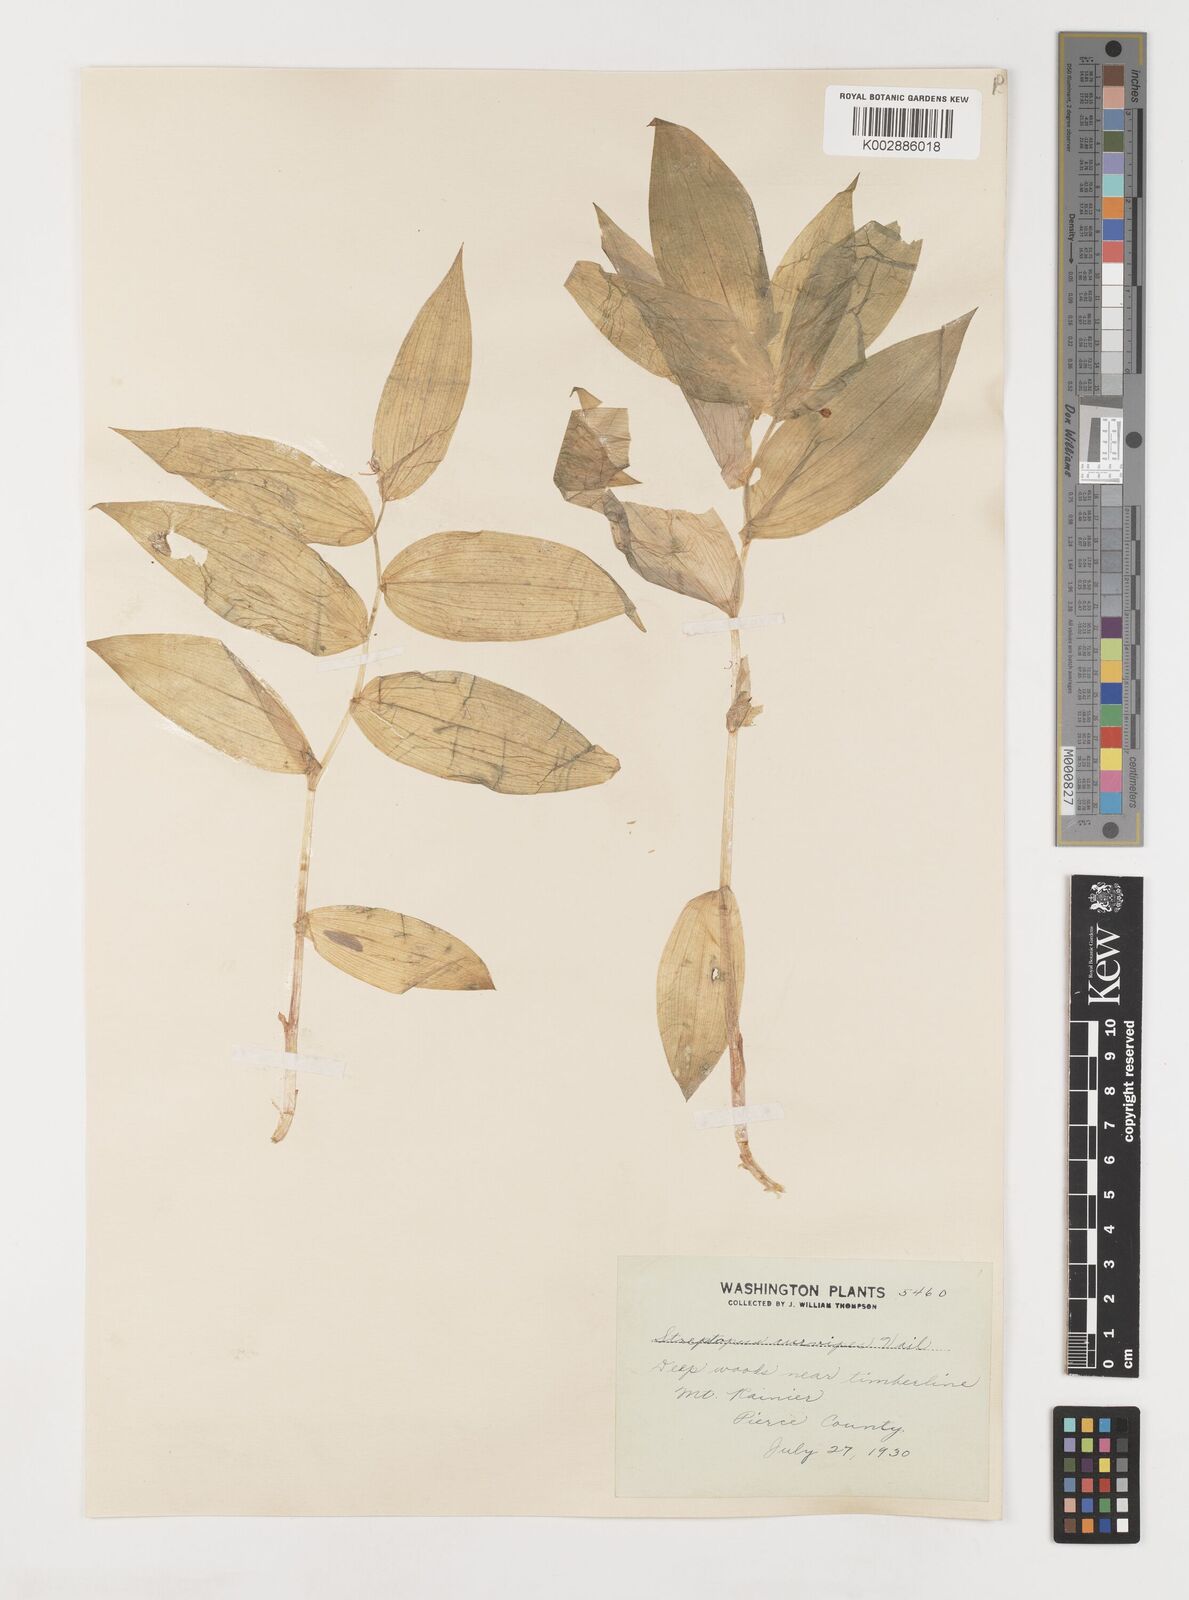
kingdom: Plantae
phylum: Tracheophyta
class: Liliopsida
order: Liliales
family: Liliaceae
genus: Streptopus
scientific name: Streptopus lanceolatus
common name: Rose mandarin
